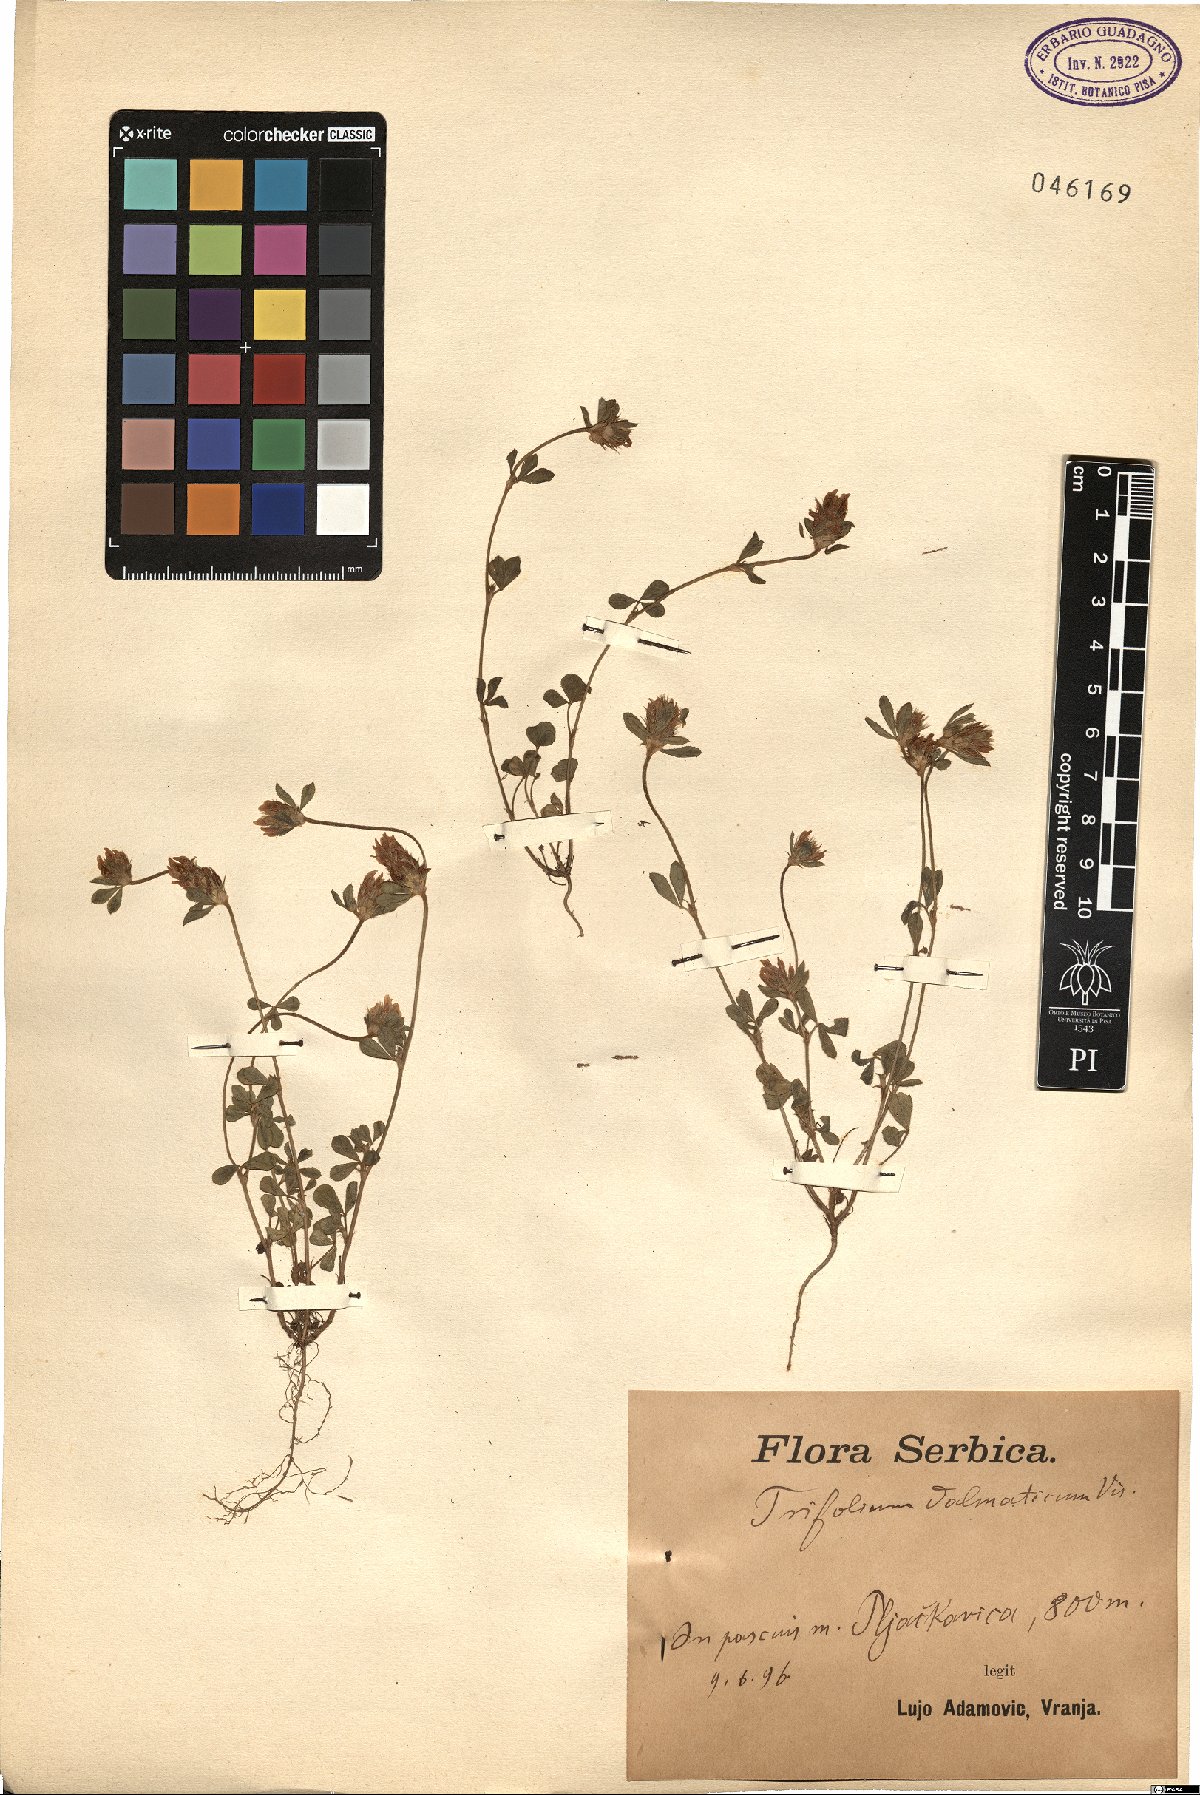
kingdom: Plantae
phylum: Tracheophyta
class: Magnoliopsida
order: Fabales
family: Fabaceae
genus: Trifolium
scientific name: Trifolium dalmaticum
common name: Dalmatian clover
